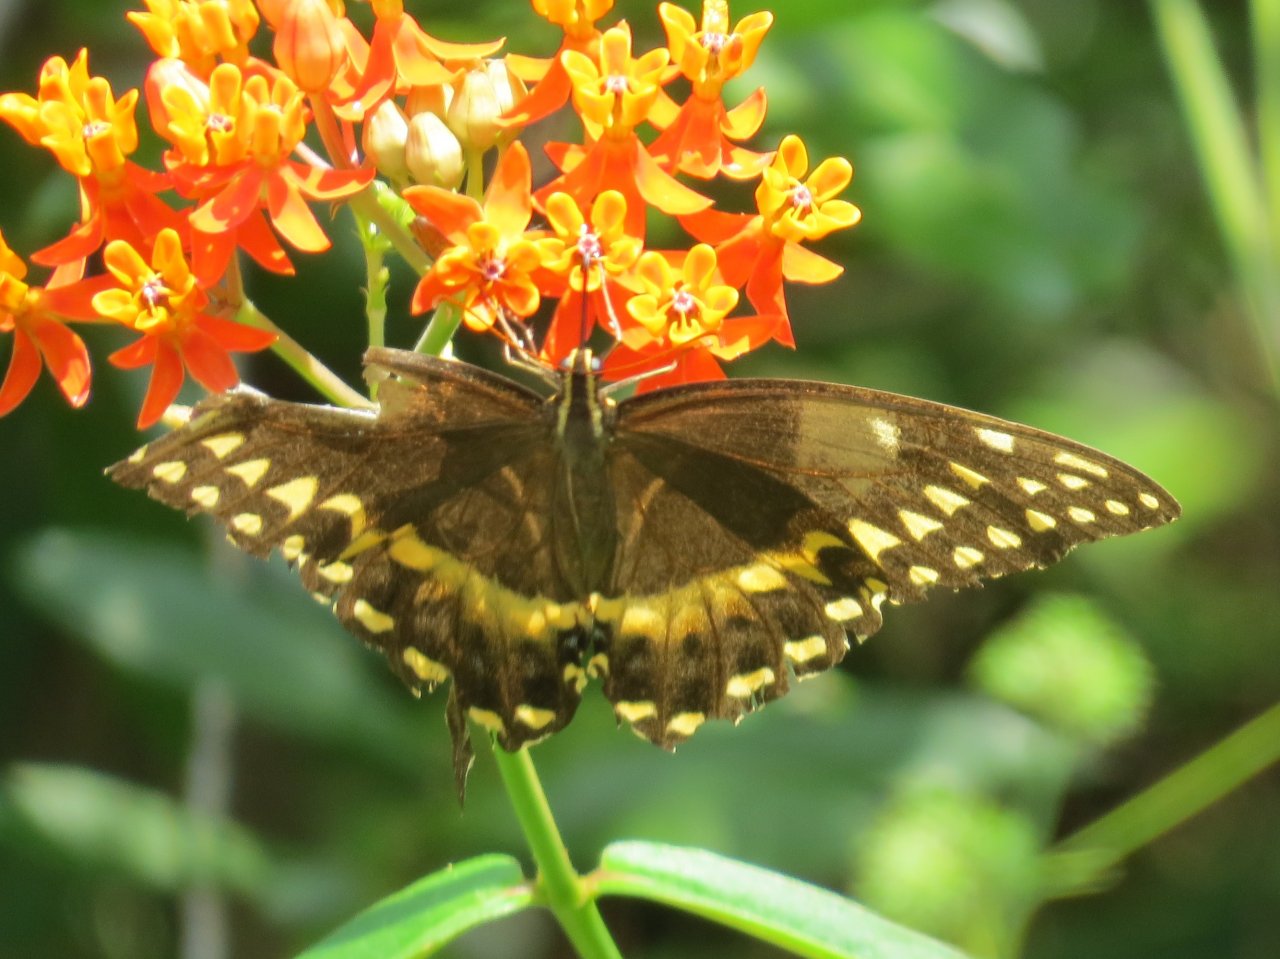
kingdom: Animalia
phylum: Arthropoda
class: Insecta
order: Lepidoptera
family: Papilionidae
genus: Pterourus
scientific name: Pterourus palamedes
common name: Palamedes Swallowtail
